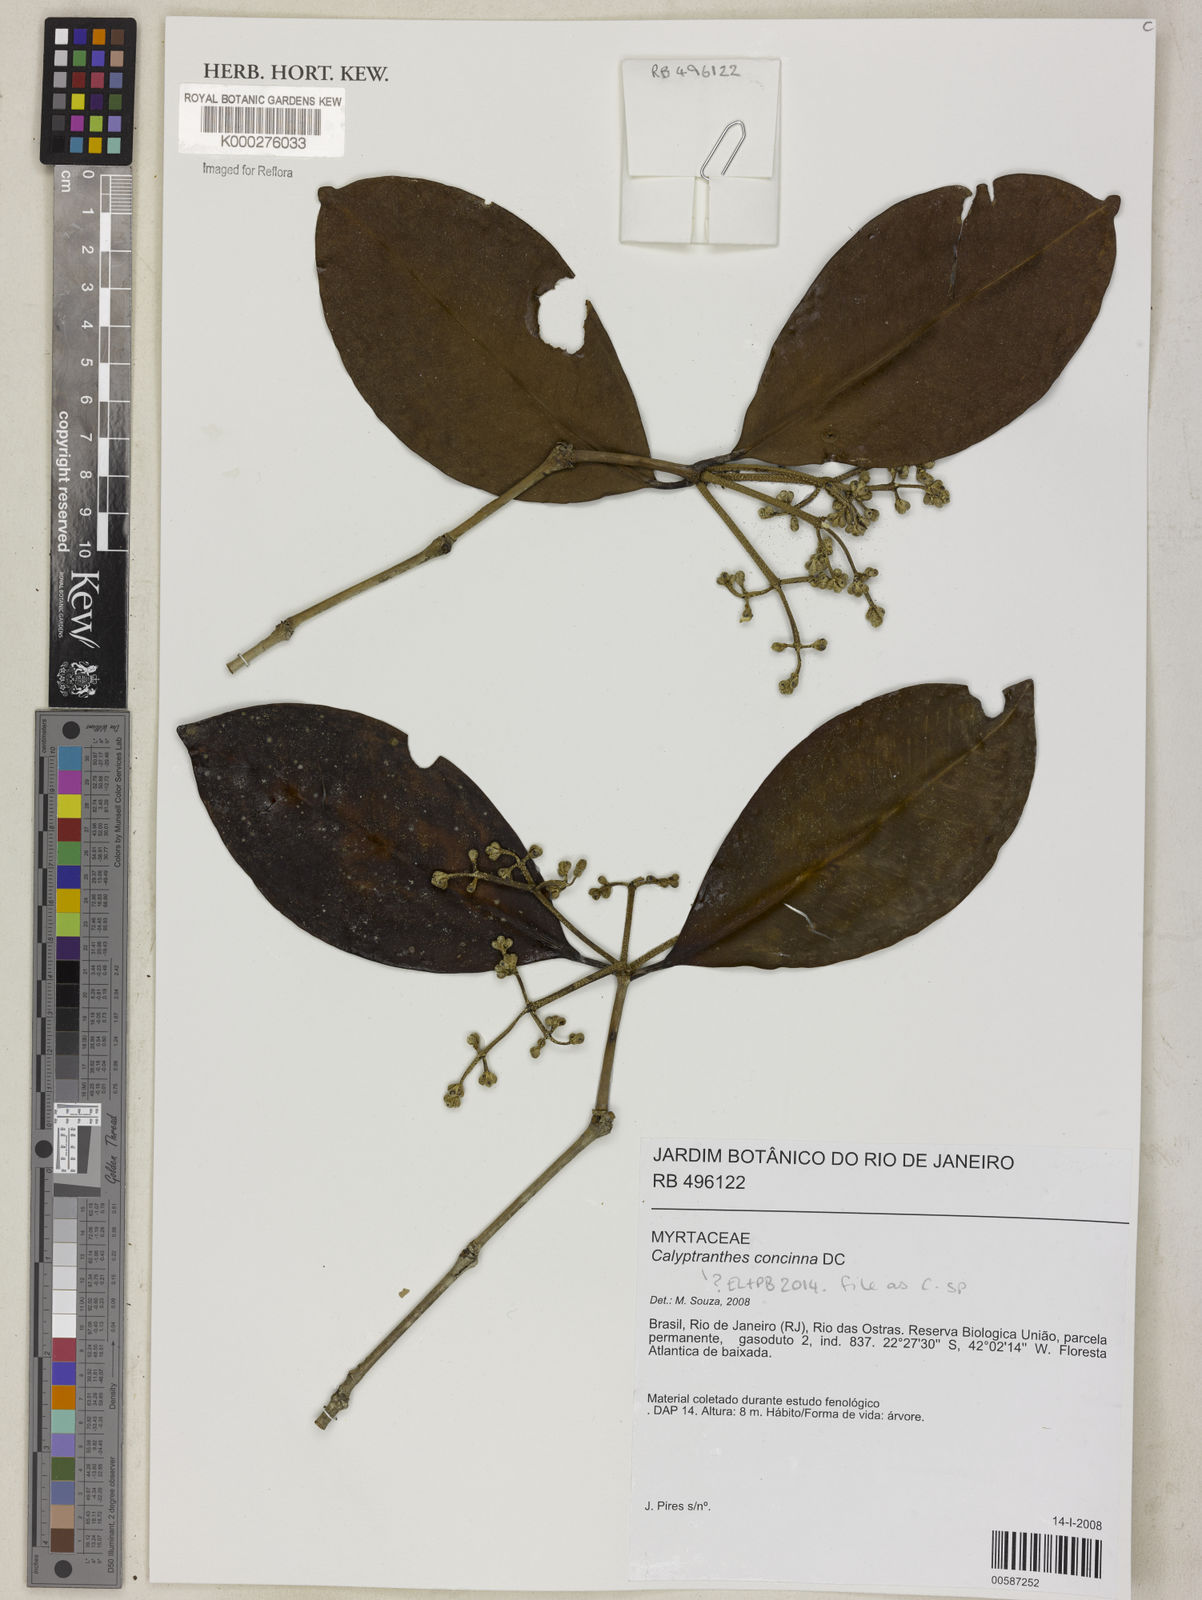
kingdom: Plantae
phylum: Tracheophyta
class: Magnoliopsida
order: Myrtales
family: Myrtaceae
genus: Calyptranthes
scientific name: Calyptranthes grandifolia
